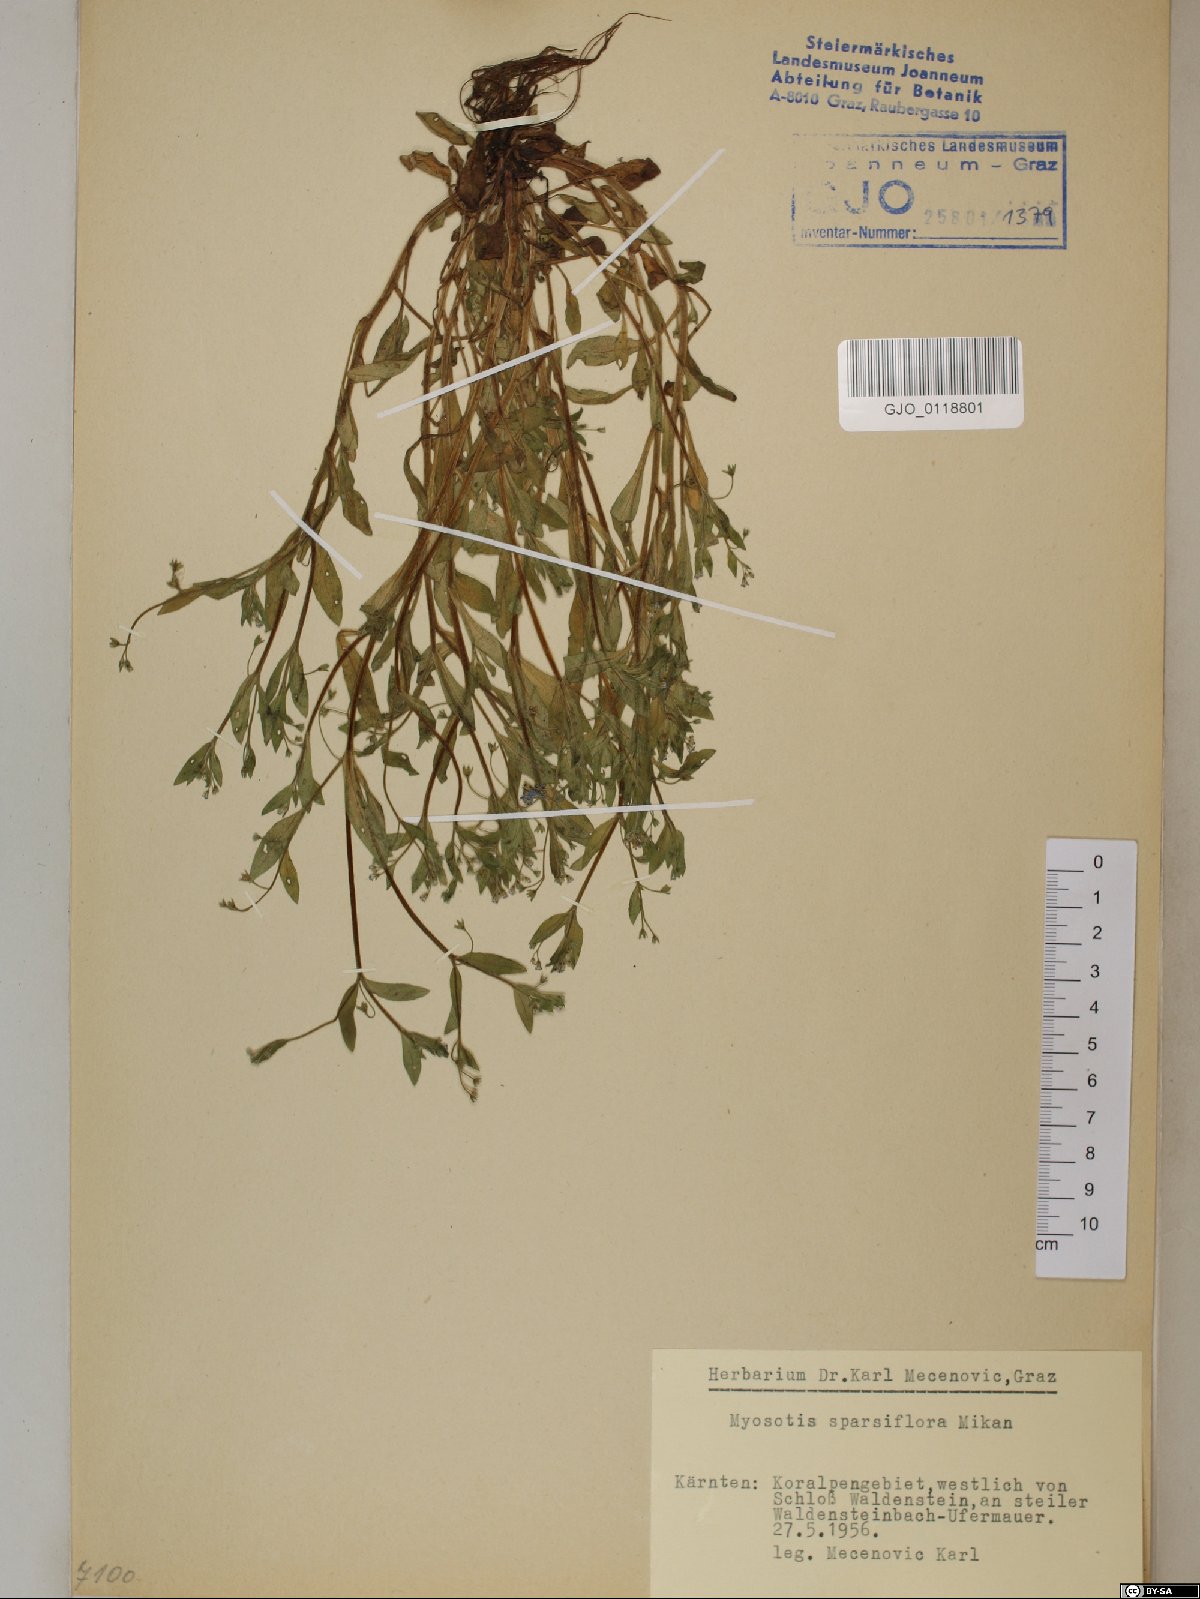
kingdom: Plantae
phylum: Tracheophyta
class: Magnoliopsida
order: Boraginales
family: Boraginaceae
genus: Myosotis
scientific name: Myosotis sparsiflora
